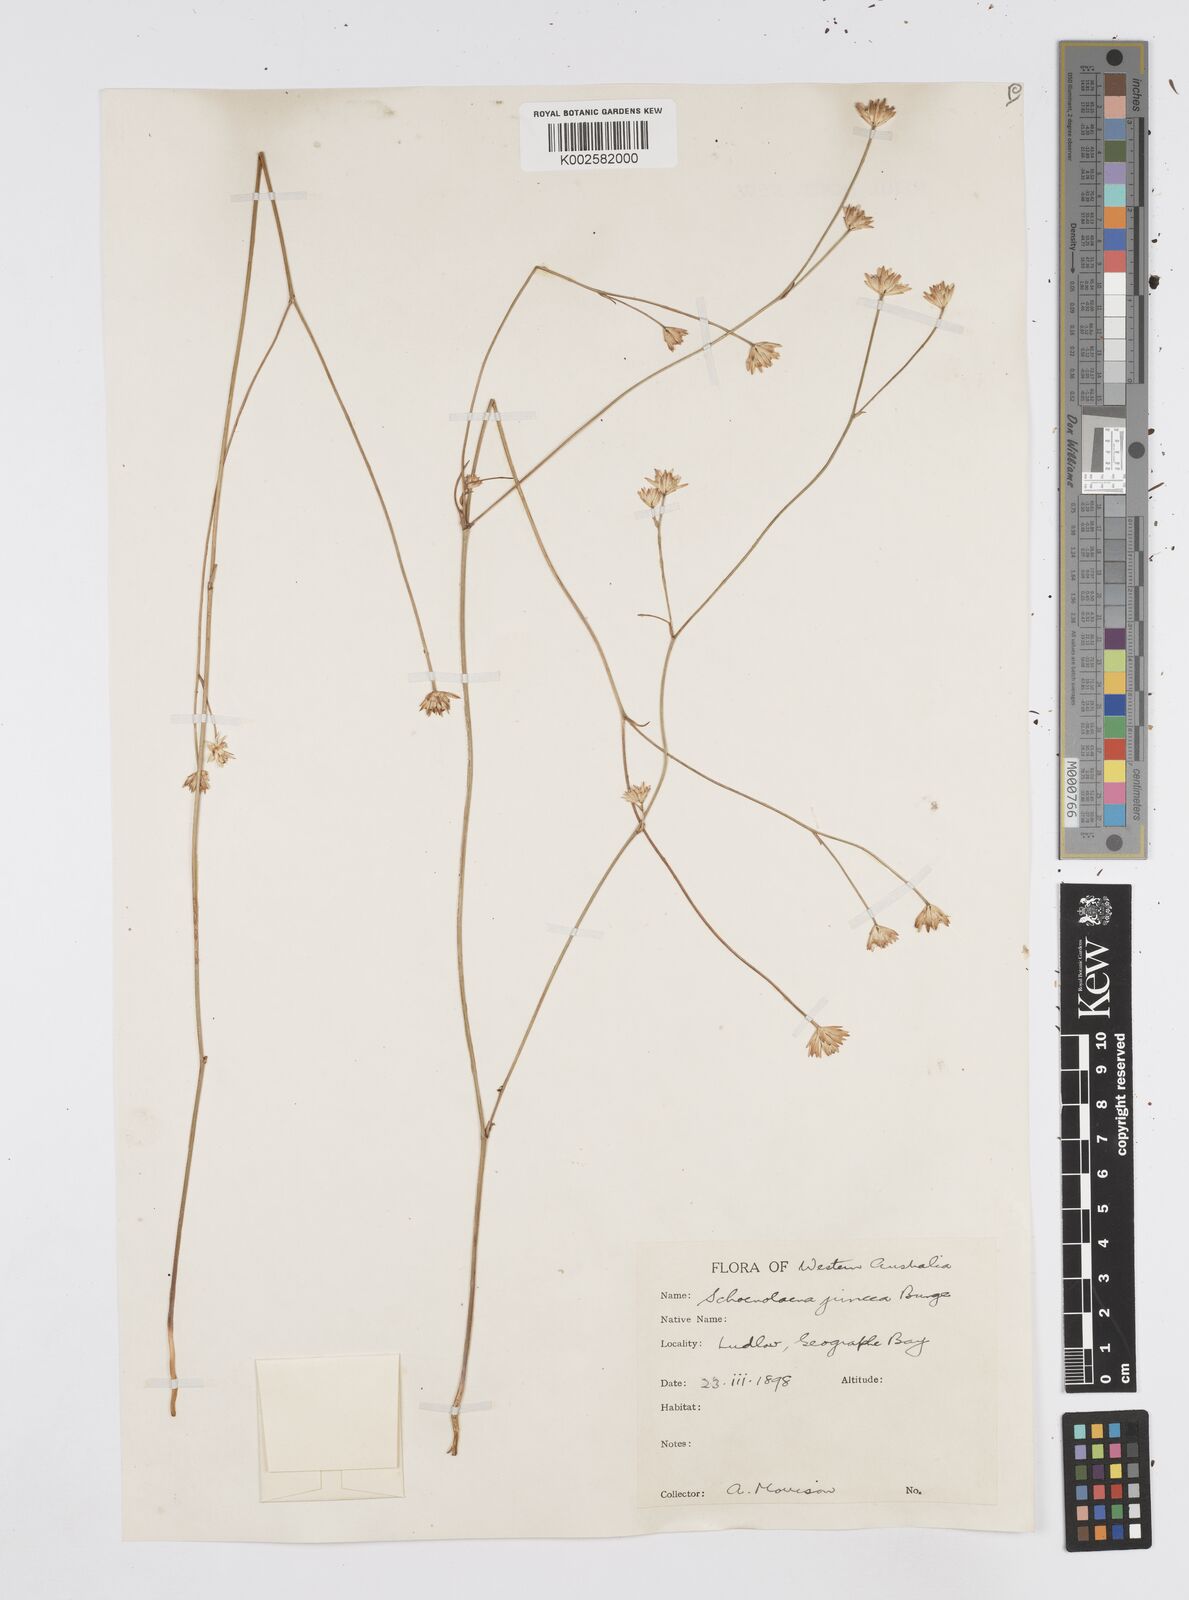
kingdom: Plantae
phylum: Tracheophyta
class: Magnoliopsida
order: Apiales
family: Apiaceae
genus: Schoenolaena
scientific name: Schoenolaena juncea
